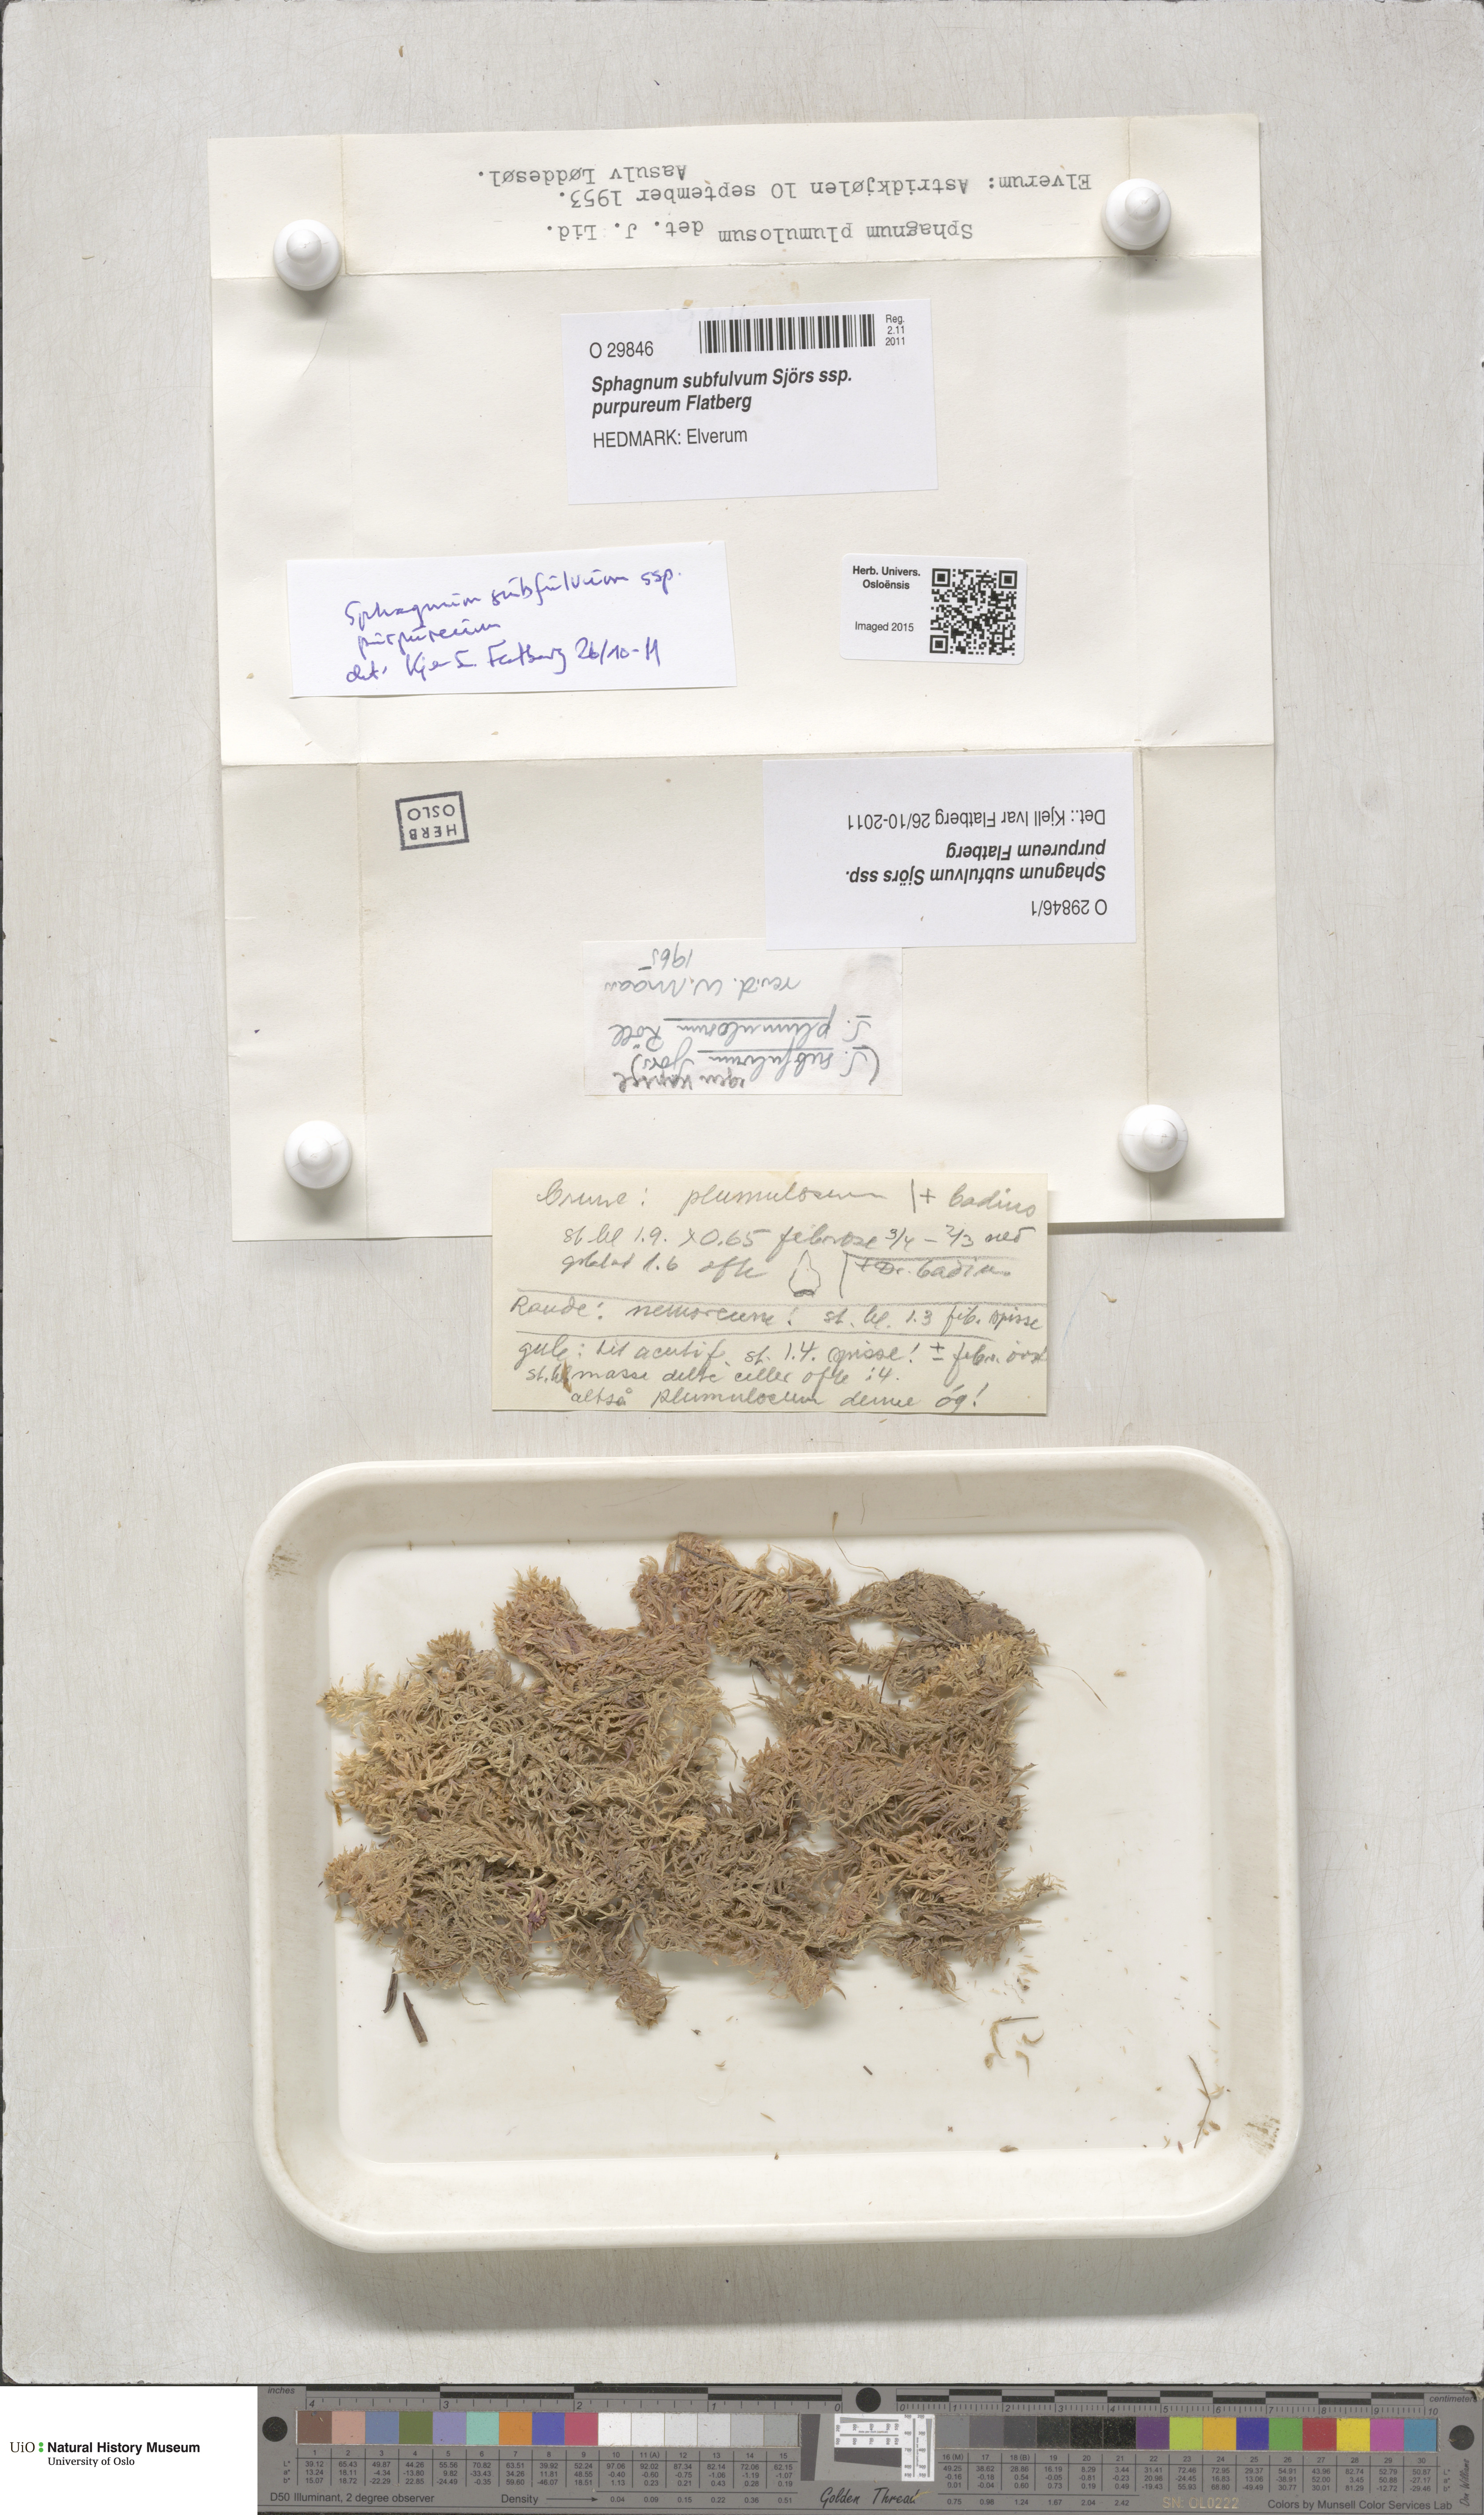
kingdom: Plantae
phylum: Bryophyta
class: Sphagnopsida
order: Sphagnales
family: Sphagnaceae
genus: Sphagnum
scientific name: Sphagnum subfulvum
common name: Fulvous peat moss
